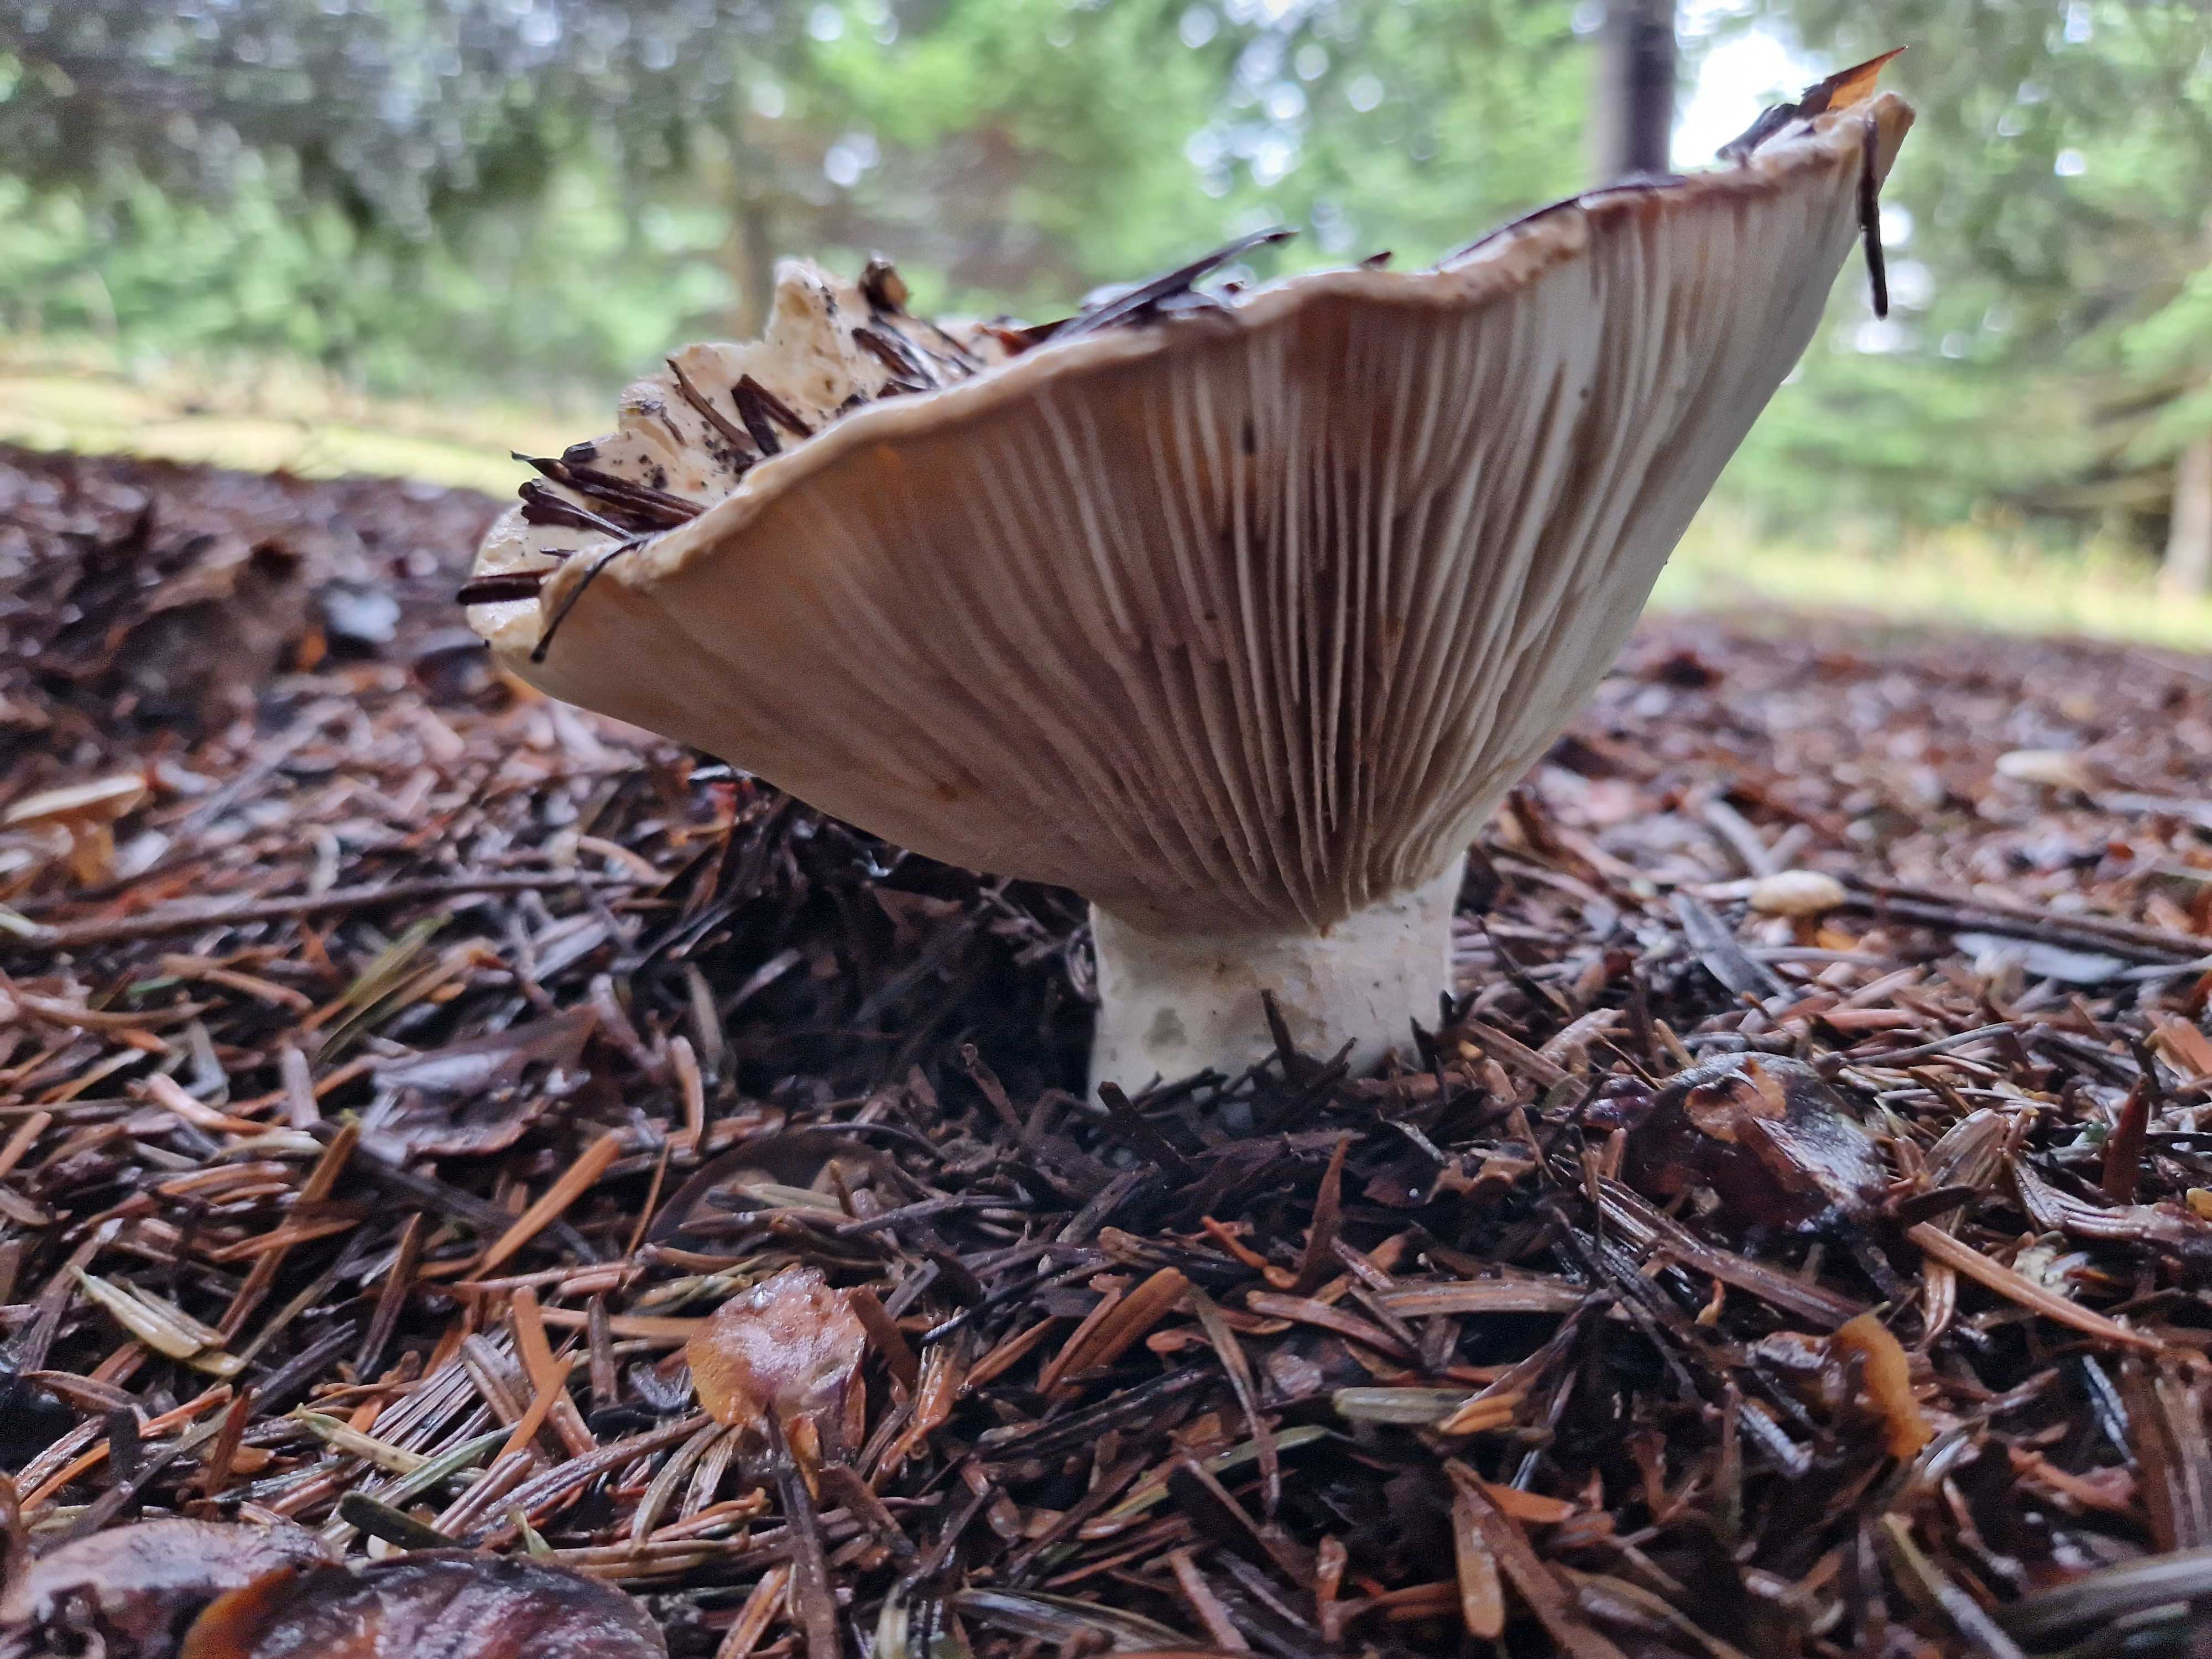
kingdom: Fungi
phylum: Basidiomycota
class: Agaricomycetes
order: Russulales
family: Russulaceae
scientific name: Russulaceae
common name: skørhatfamilien
